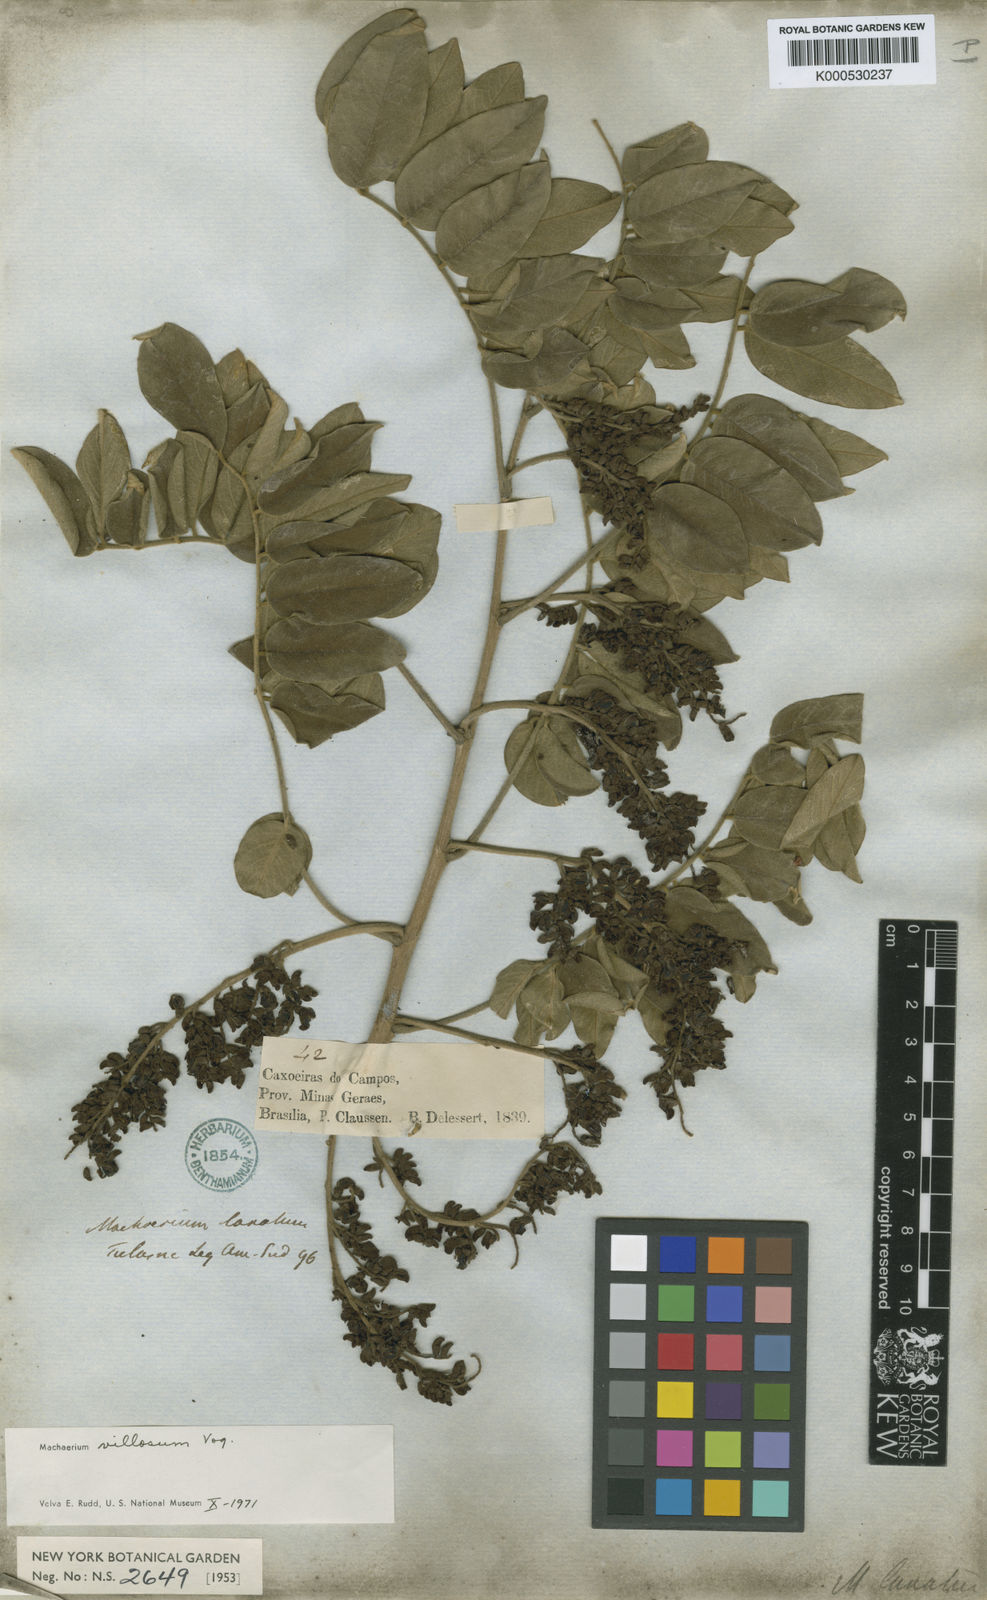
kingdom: Plantae
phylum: Tracheophyta
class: Magnoliopsida
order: Fabales
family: Fabaceae
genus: Machaerium
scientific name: Machaerium villosum
